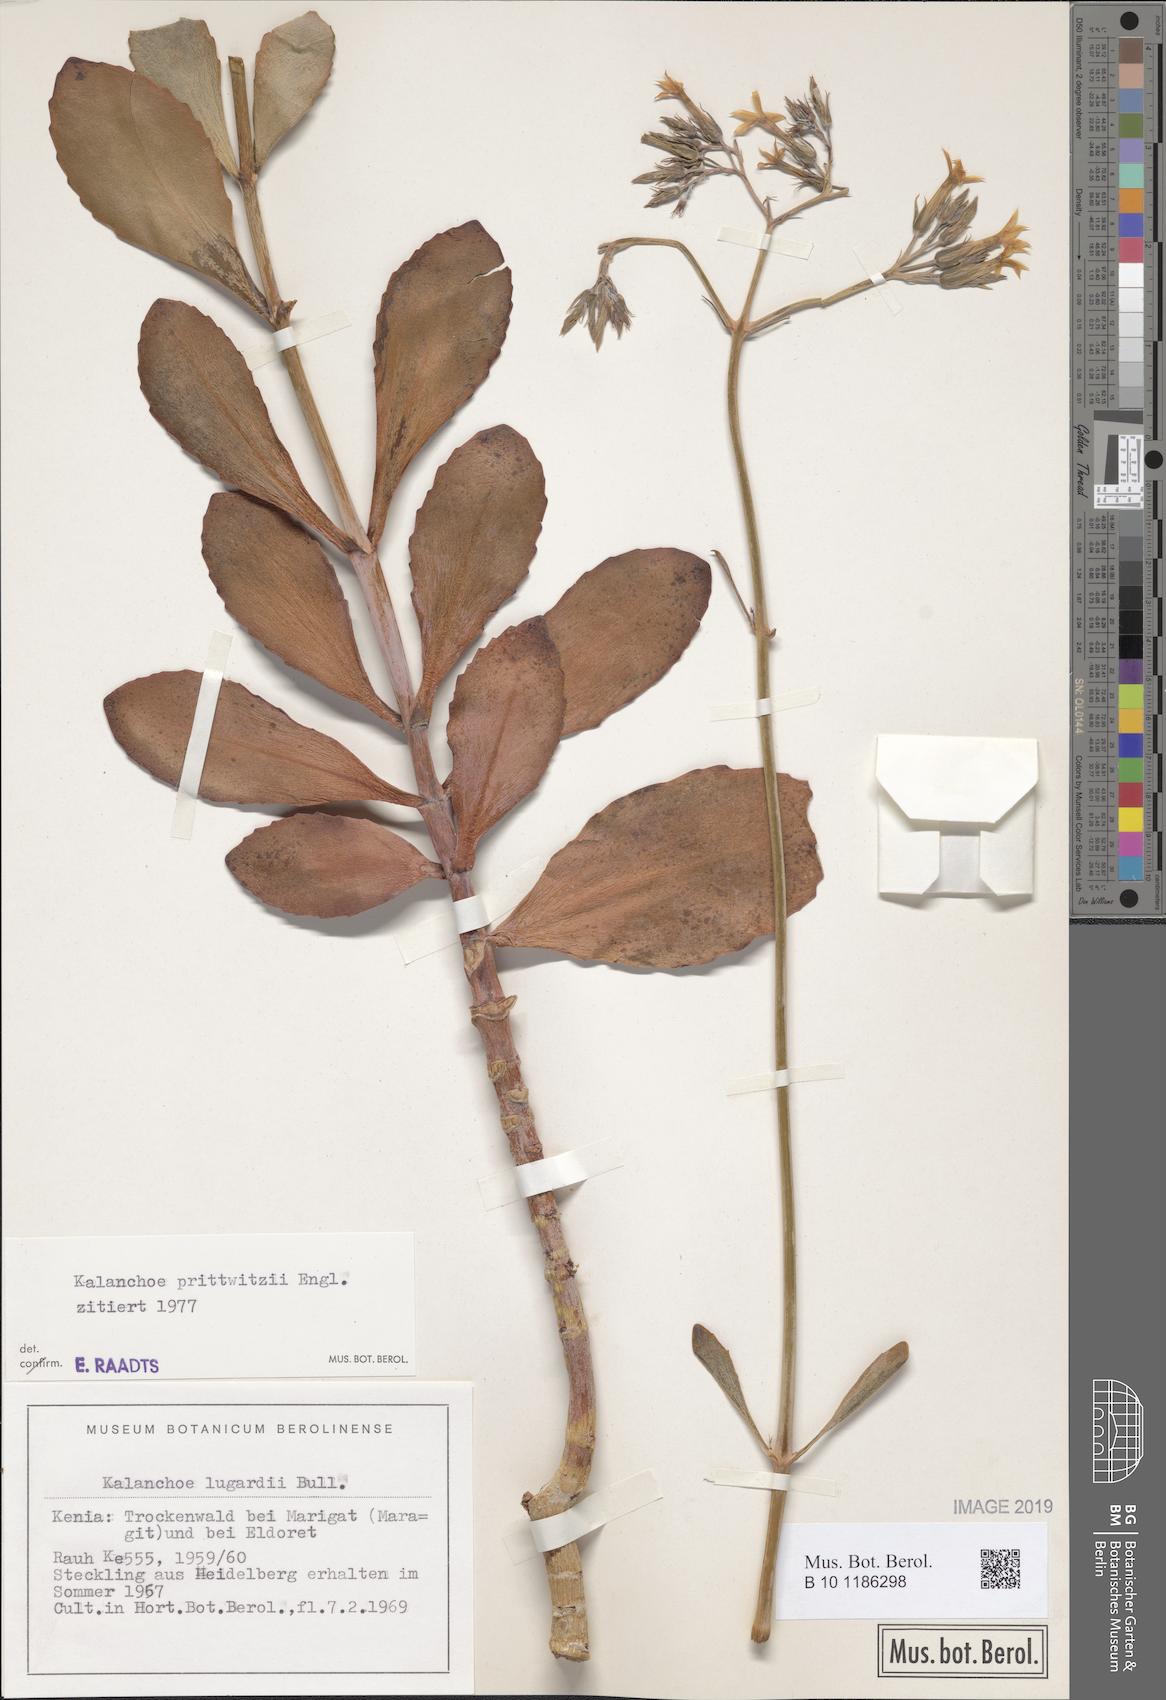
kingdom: Plantae
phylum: Tracheophyta
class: Magnoliopsida
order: Saxifragales
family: Crassulaceae
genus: Kalanchoe
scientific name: Kalanchoe prittwitzii
